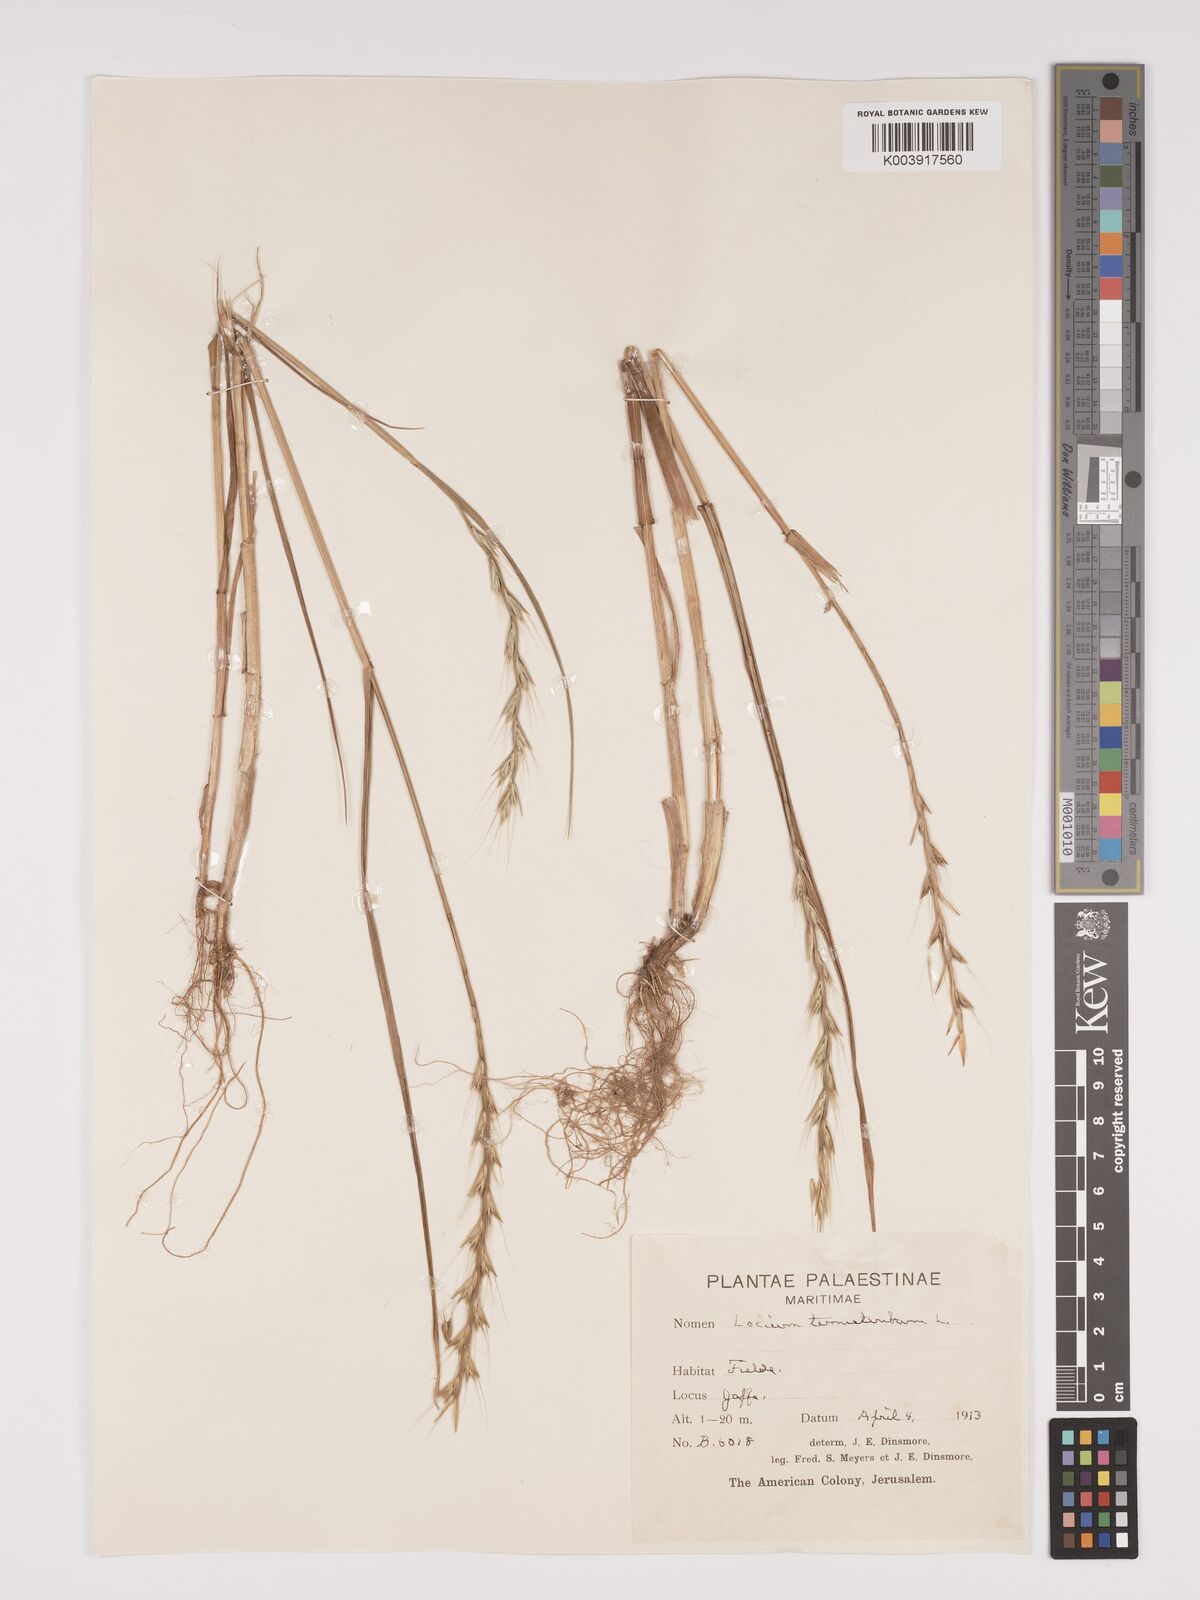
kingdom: Plantae
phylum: Tracheophyta
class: Liliopsida
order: Poales
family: Poaceae
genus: Lolium
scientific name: Lolium temulentum
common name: Darnel
